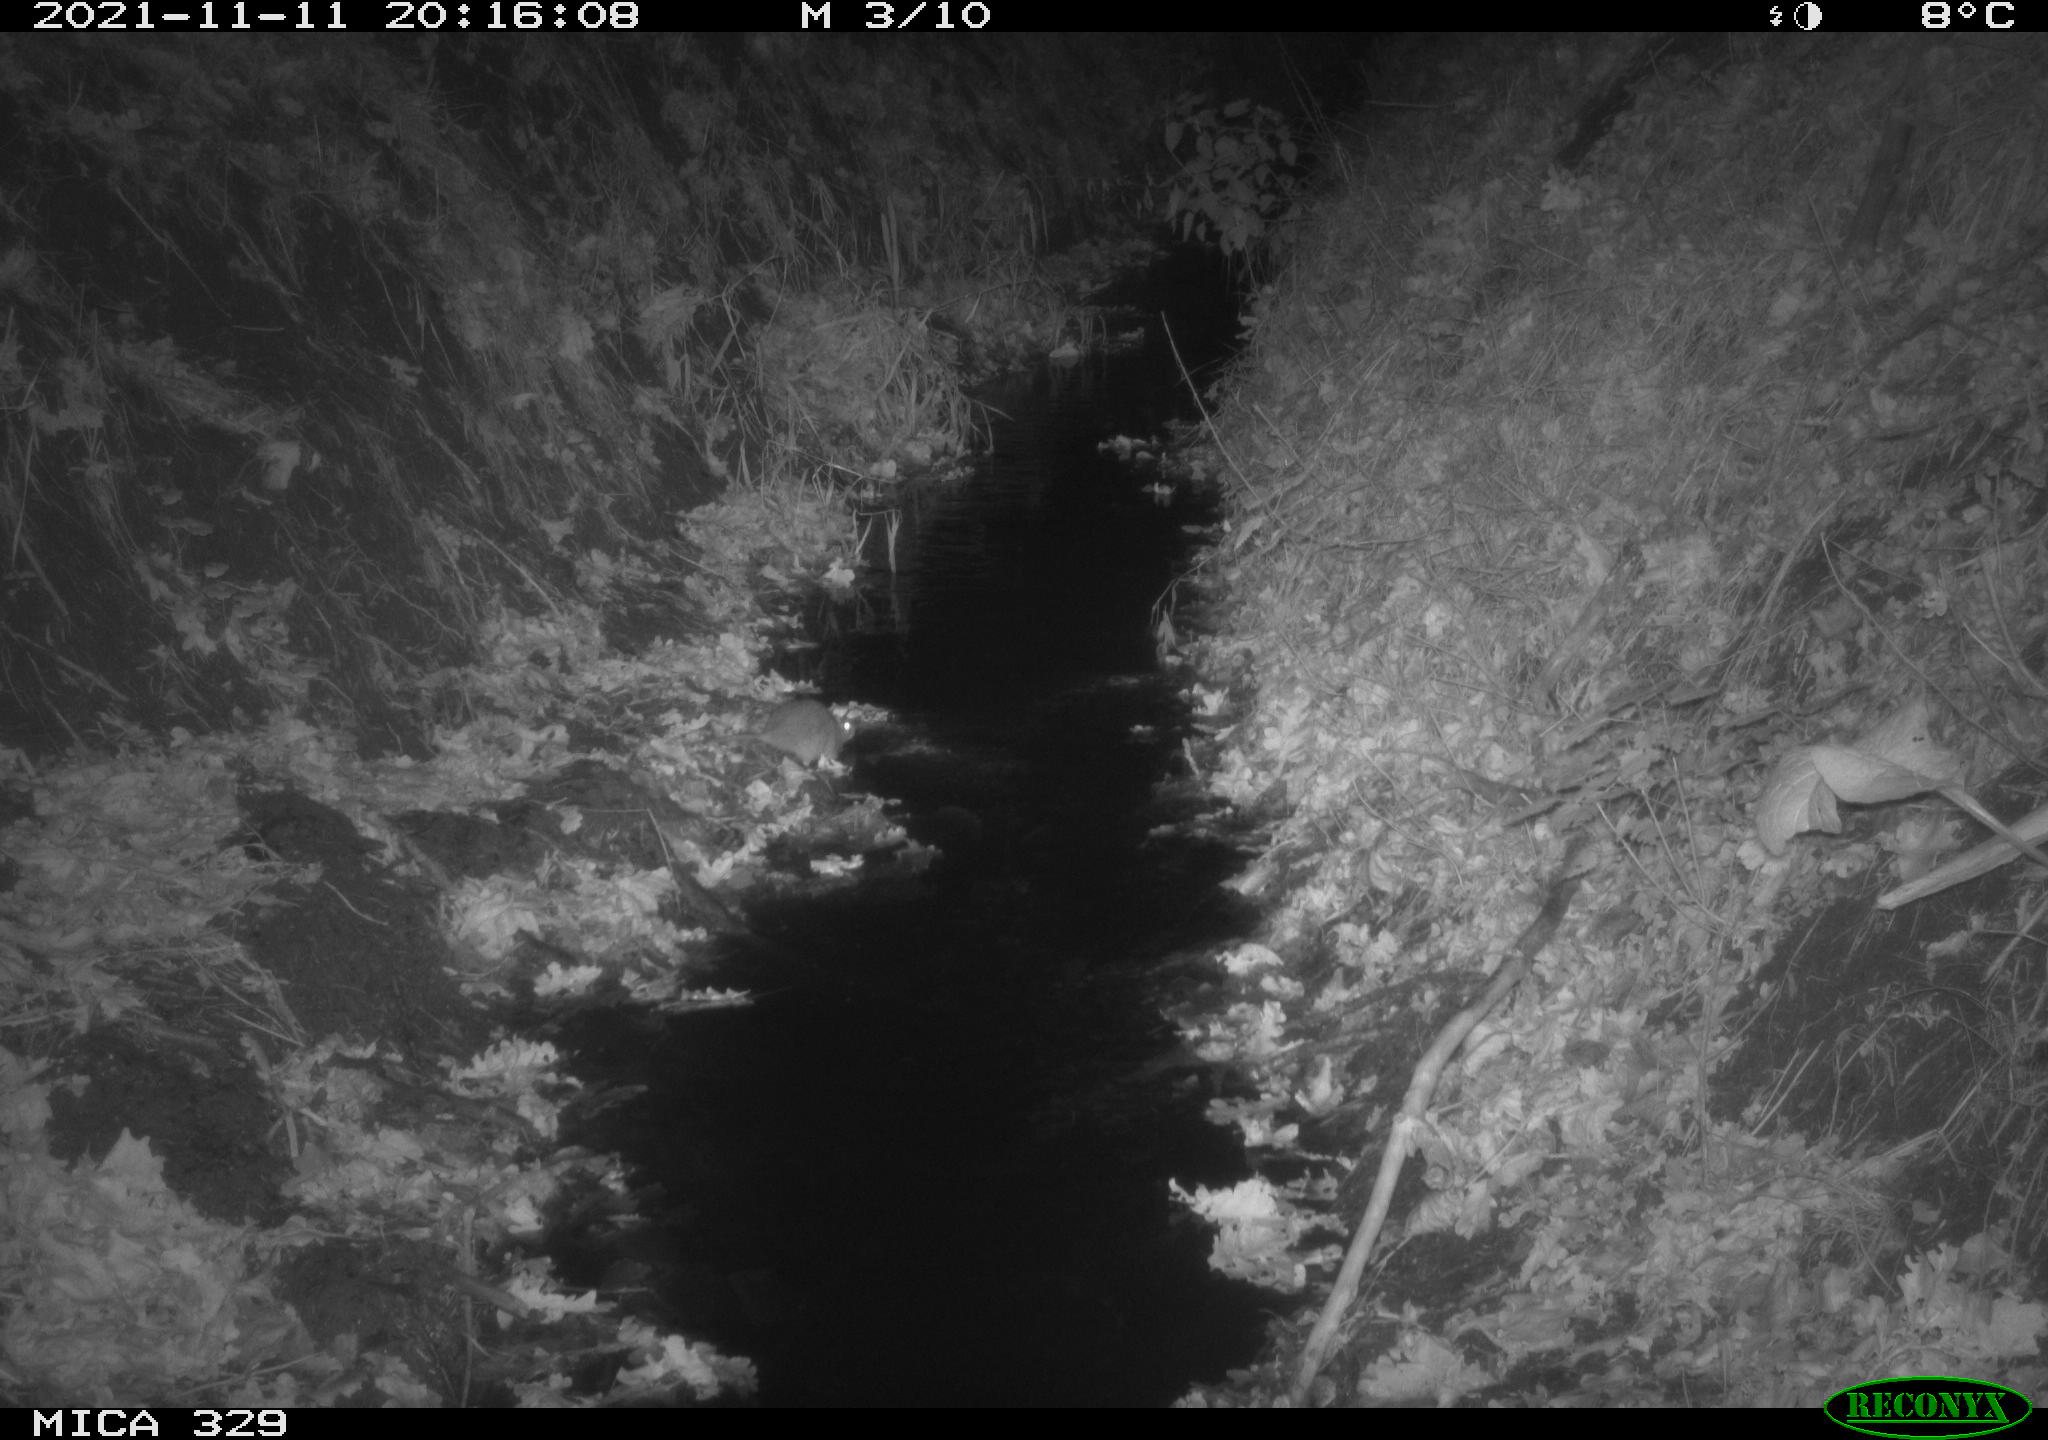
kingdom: Animalia
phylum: Chordata
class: Mammalia
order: Rodentia
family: Muridae
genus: Rattus
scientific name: Rattus norvegicus
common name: Brown rat
